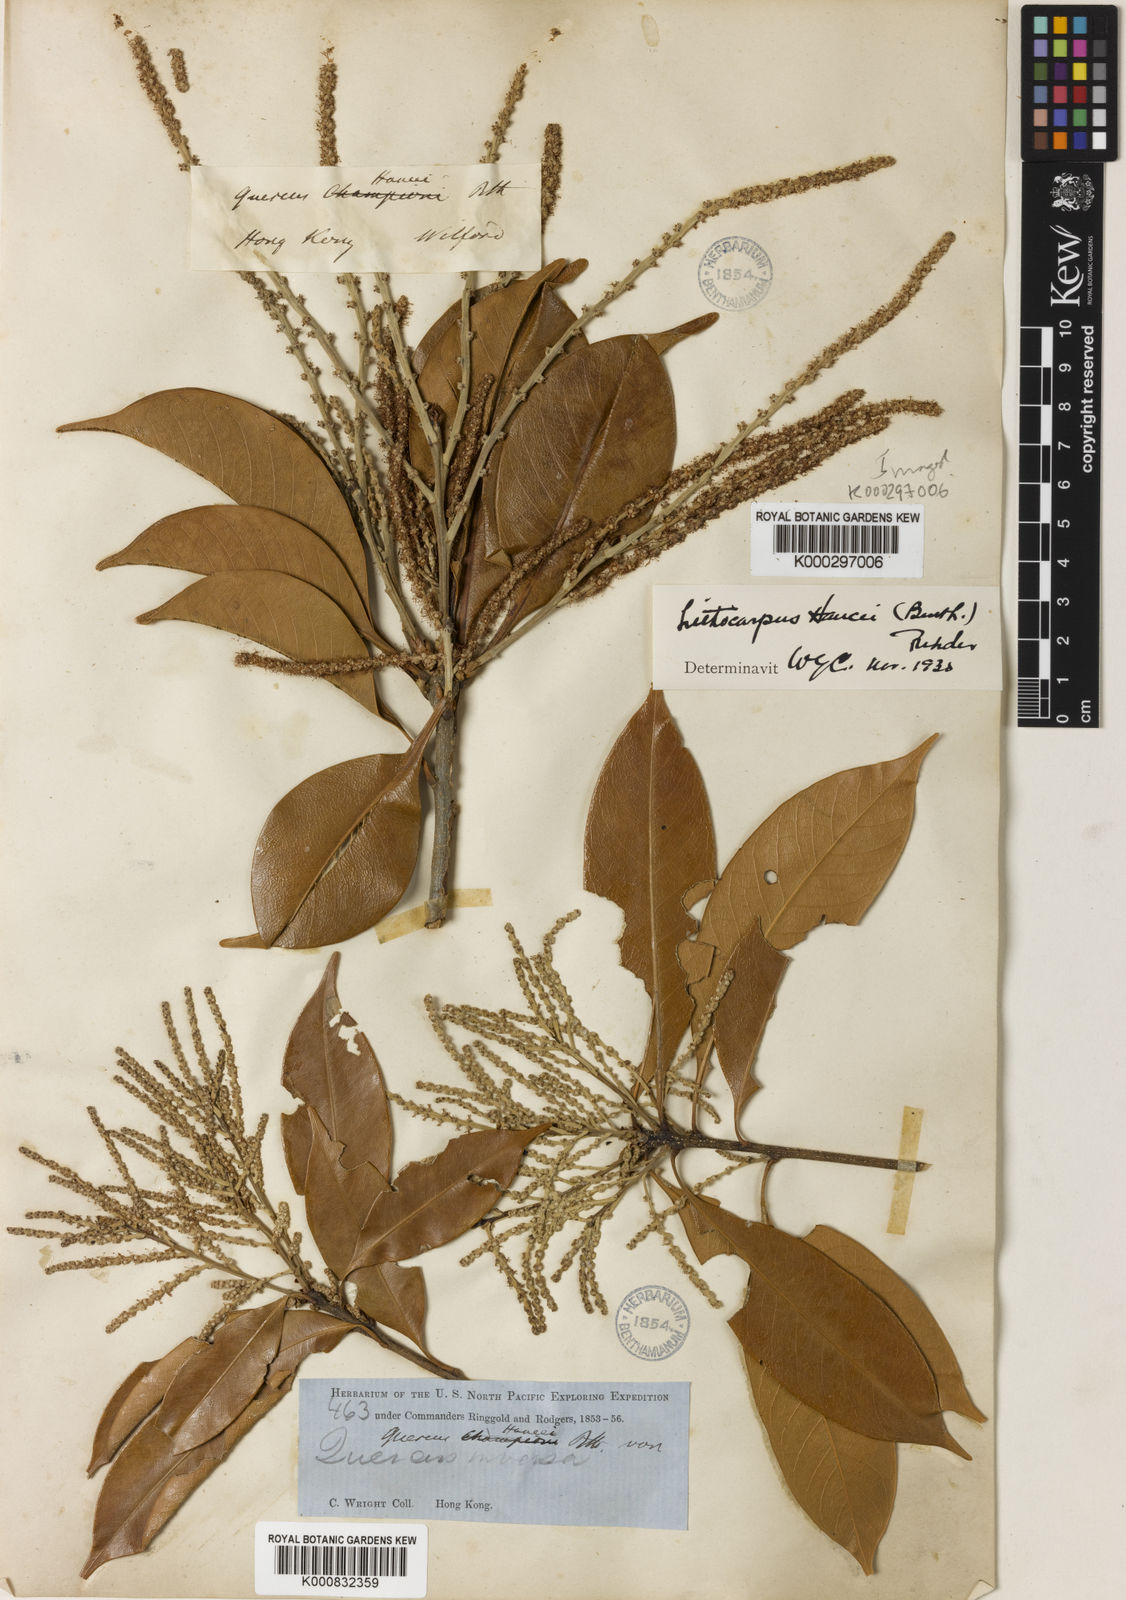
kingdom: Plantae
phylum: Tracheophyta
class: Magnoliopsida
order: Fagales
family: Fagaceae
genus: Lithocarpus
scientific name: Lithocarpus hancei
